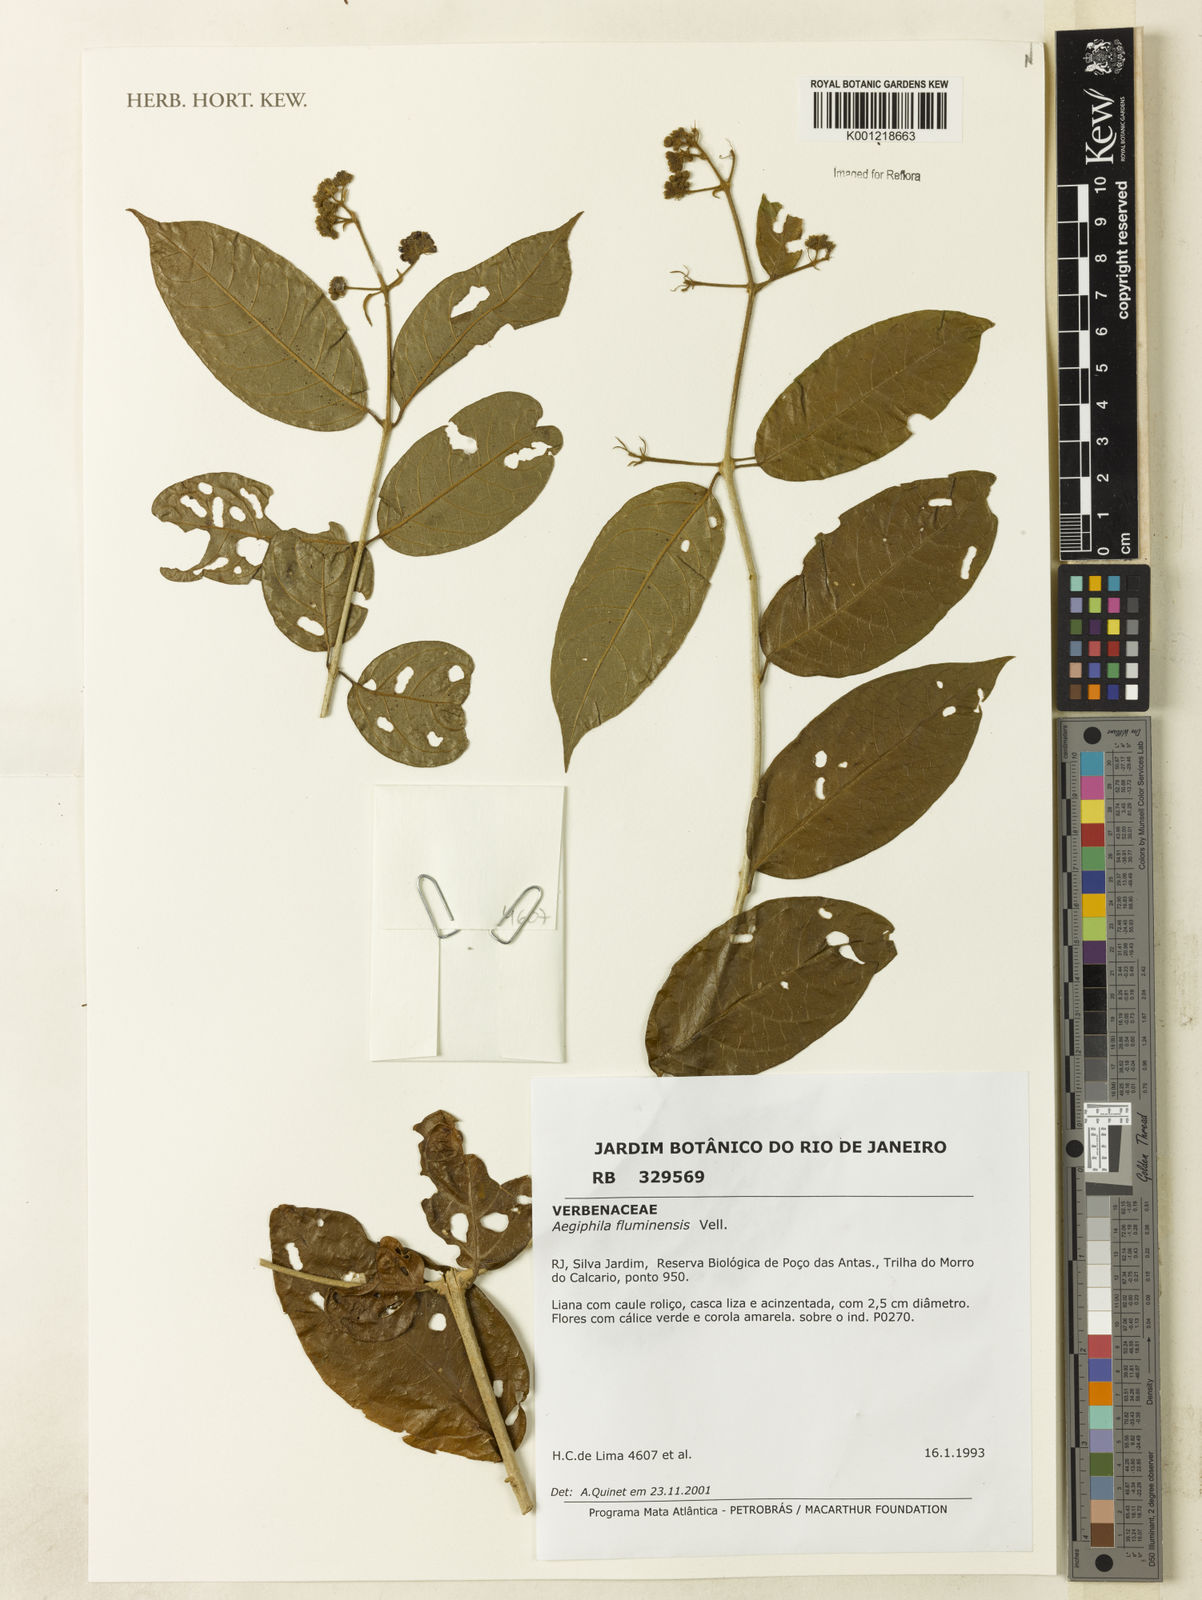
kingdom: Plantae
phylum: Tracheophyta
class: Magnoliopsida
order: Lamiales
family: Lamiaceae
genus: Aegiphila
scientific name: Aegiphila fluminensis
